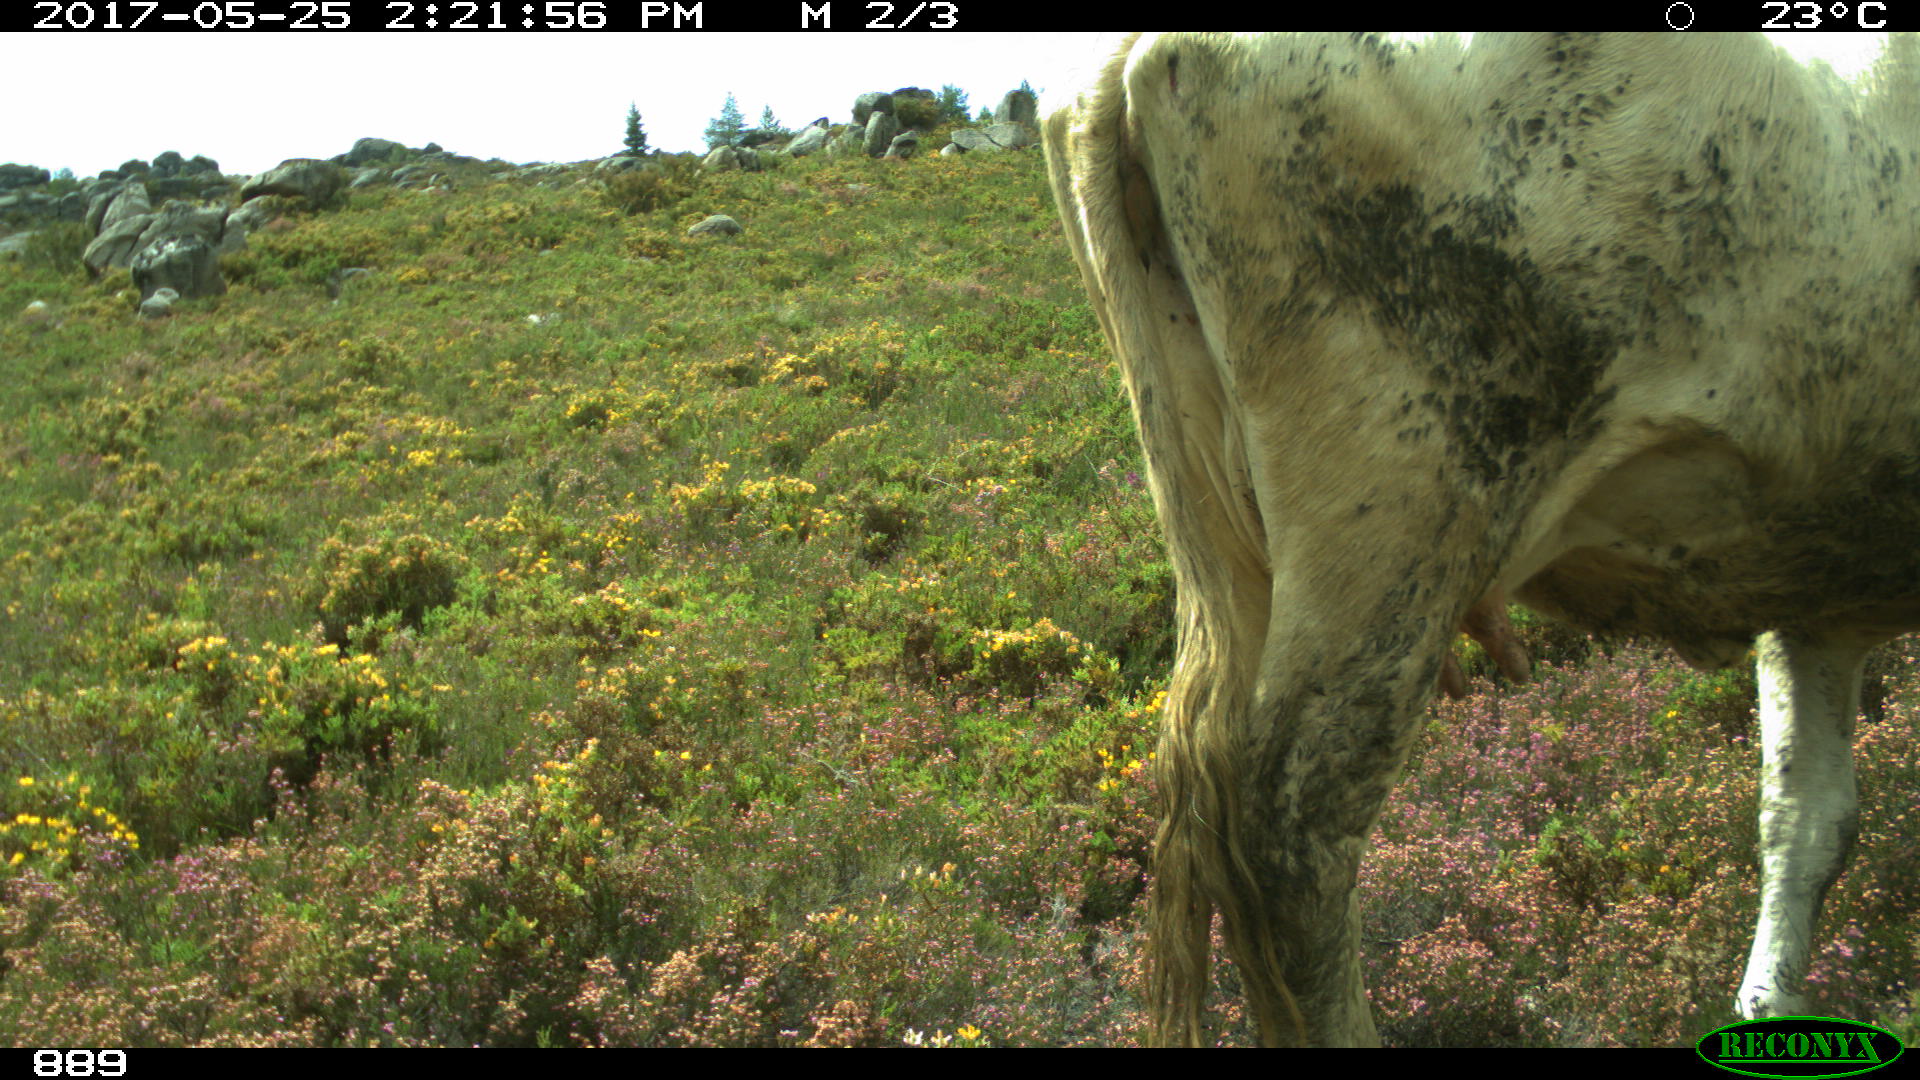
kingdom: Animalia
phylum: Chordata
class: Mammalia
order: Artiodactyla
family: Bovidae
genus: Bos
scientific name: Bos taurus
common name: Domesticated cattle
